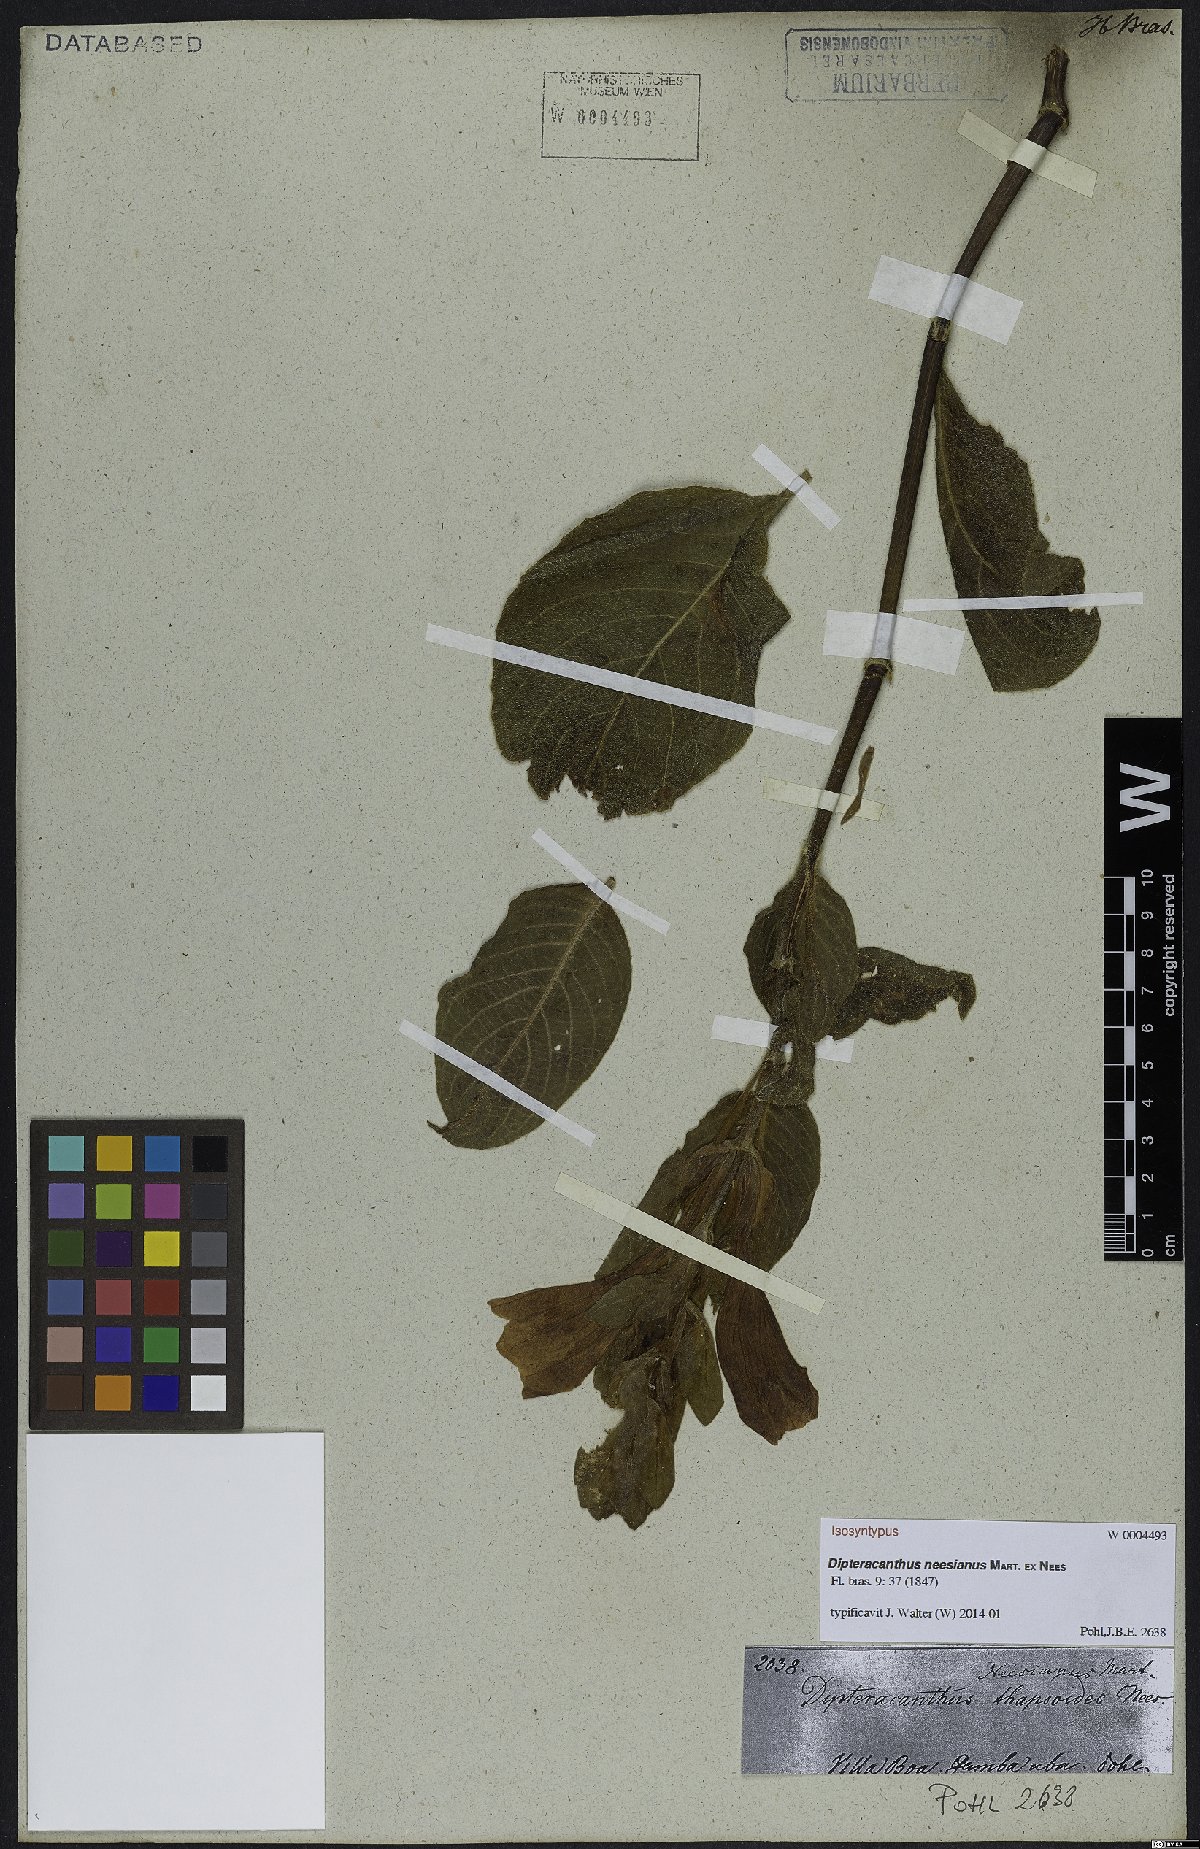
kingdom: Plantae
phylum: Tracheophyta
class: Magnoliopsida
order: Lamiales
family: Acanthaceae
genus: Ruellia
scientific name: Ruellia neesiana
